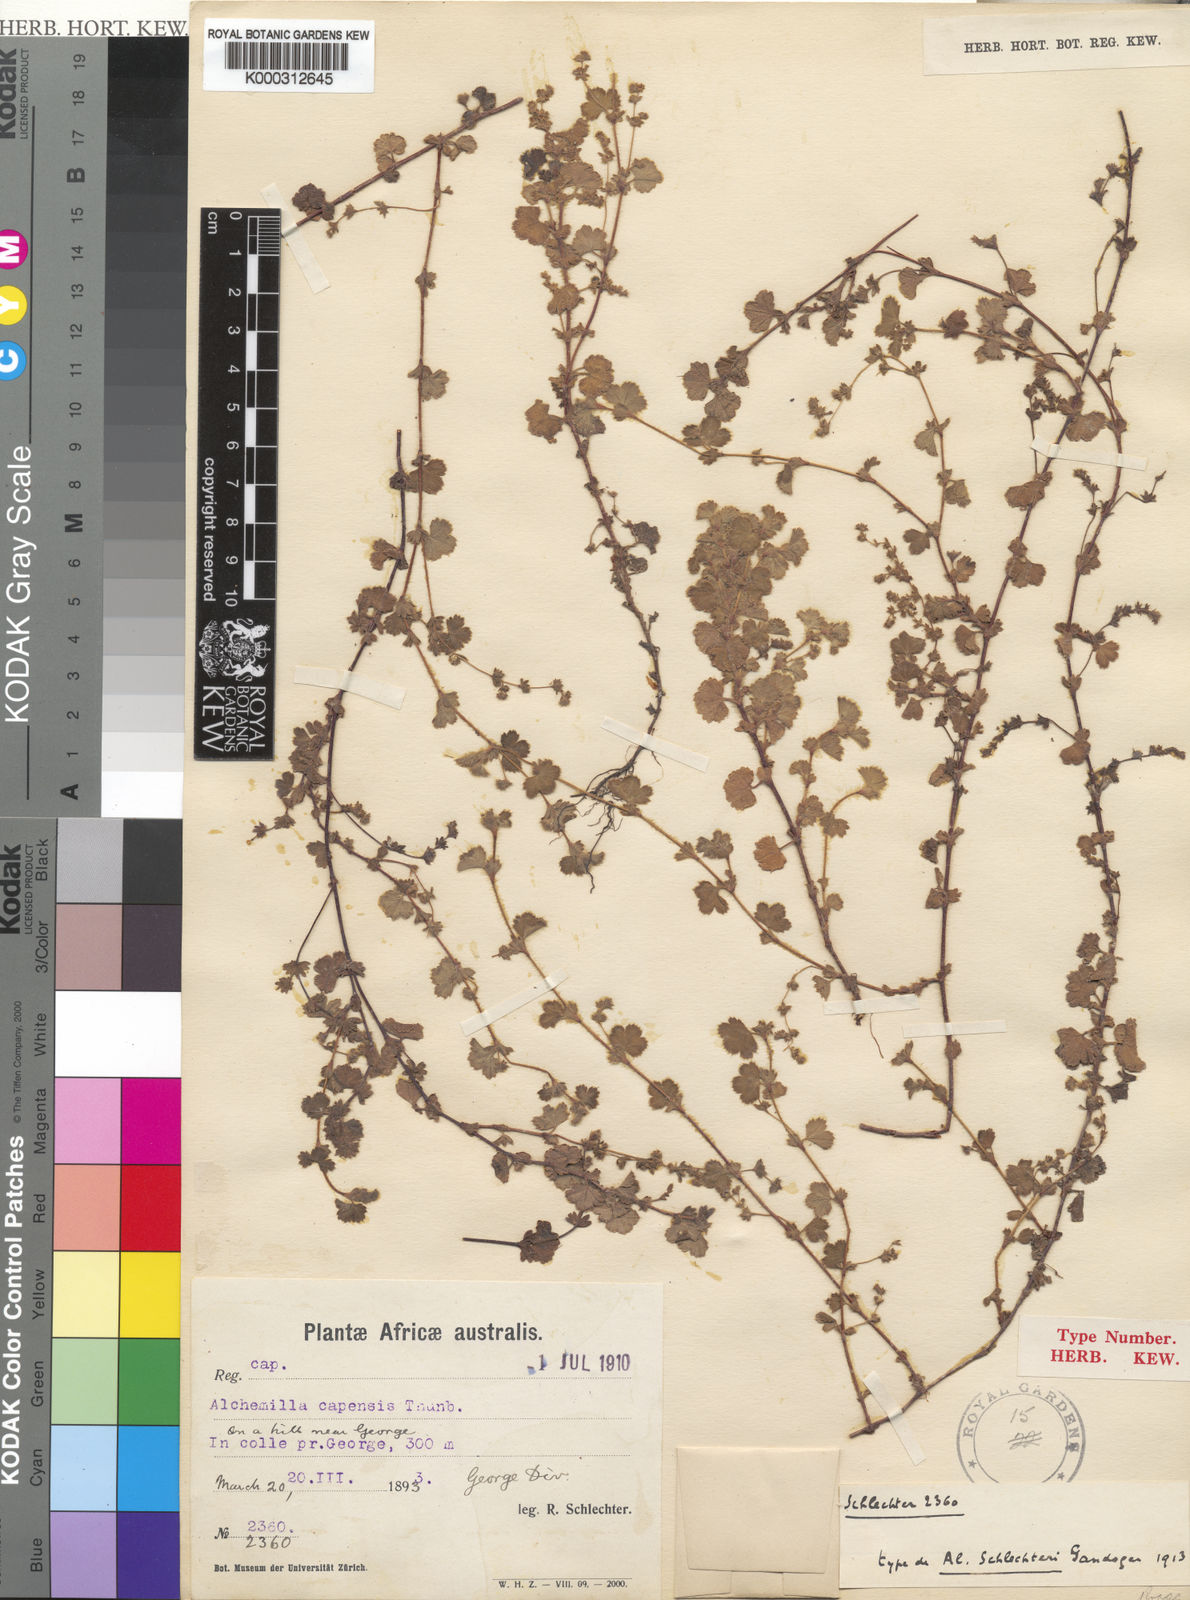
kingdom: Plantae
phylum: Tracheophyta
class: Magnoliopsida
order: Rosales
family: Rosaceae
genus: Alchemilla
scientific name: Alchemilla
